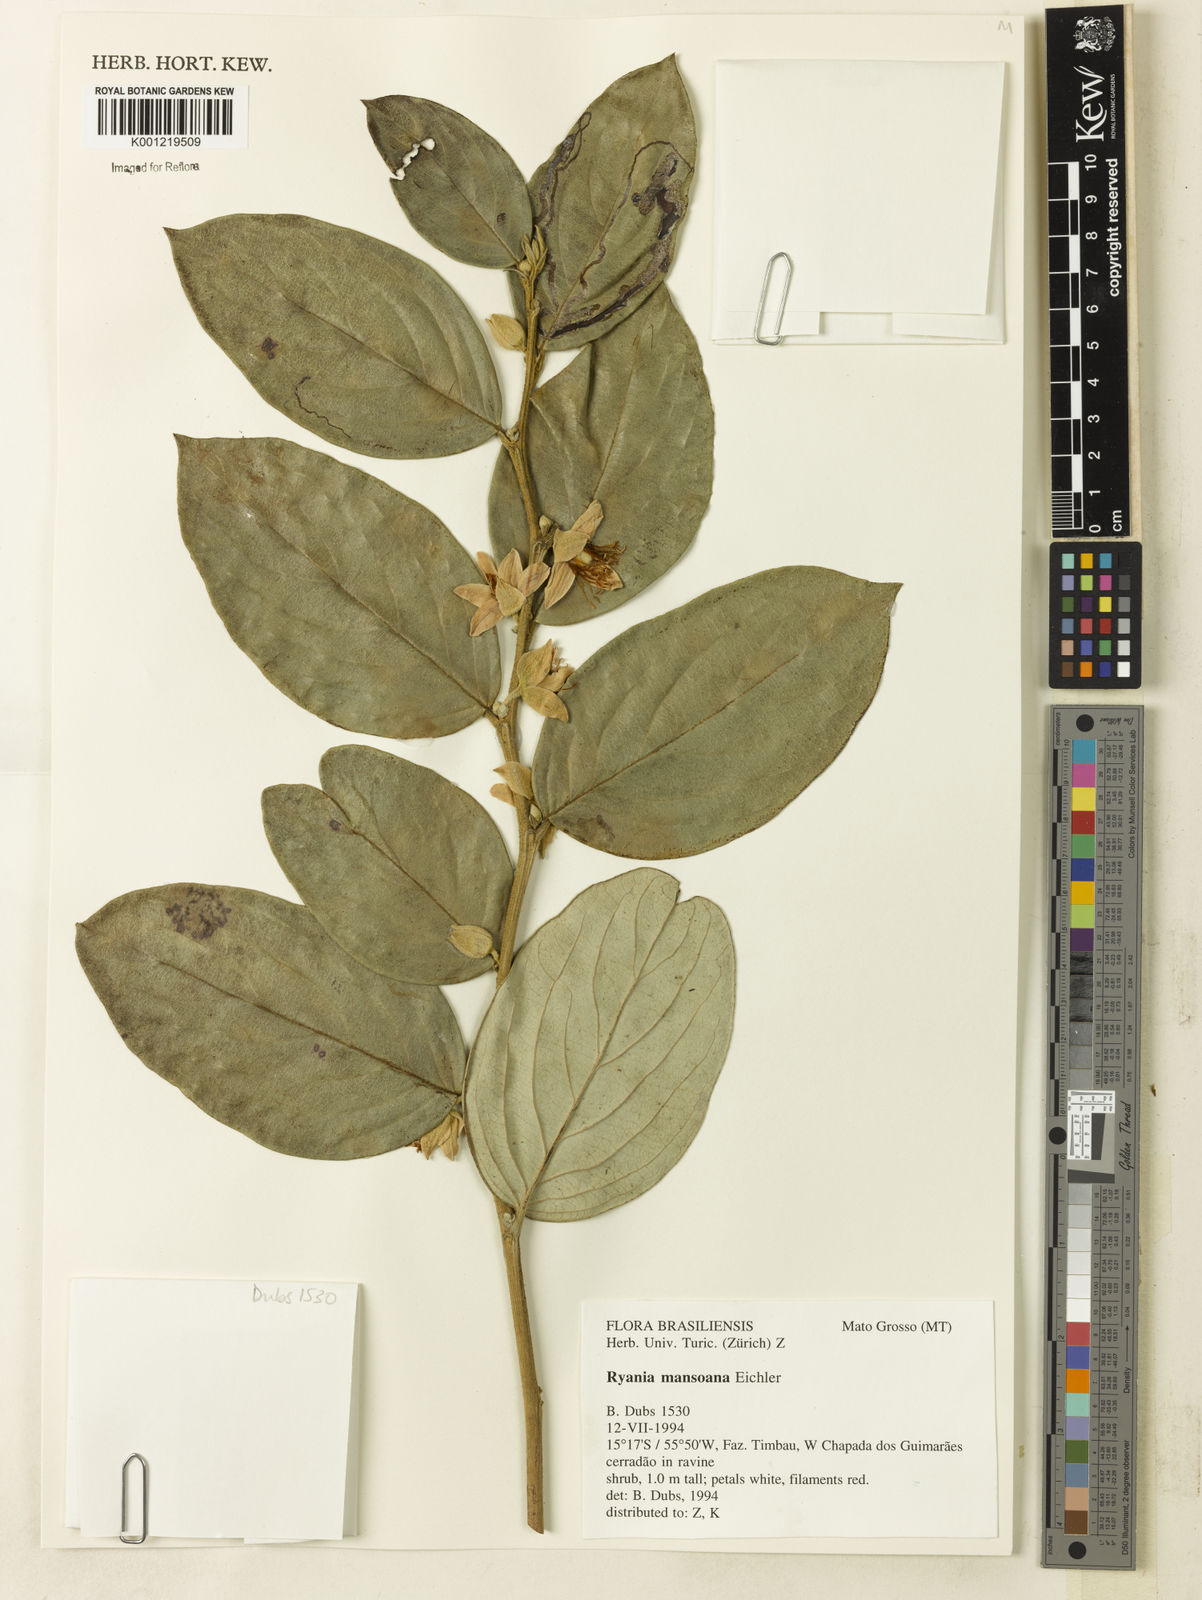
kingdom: Plantae
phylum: Tracheophyta
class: Magnoliopsida
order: Malpighiales
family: Salicaceae
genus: Ryania
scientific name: Ryania mansoana
